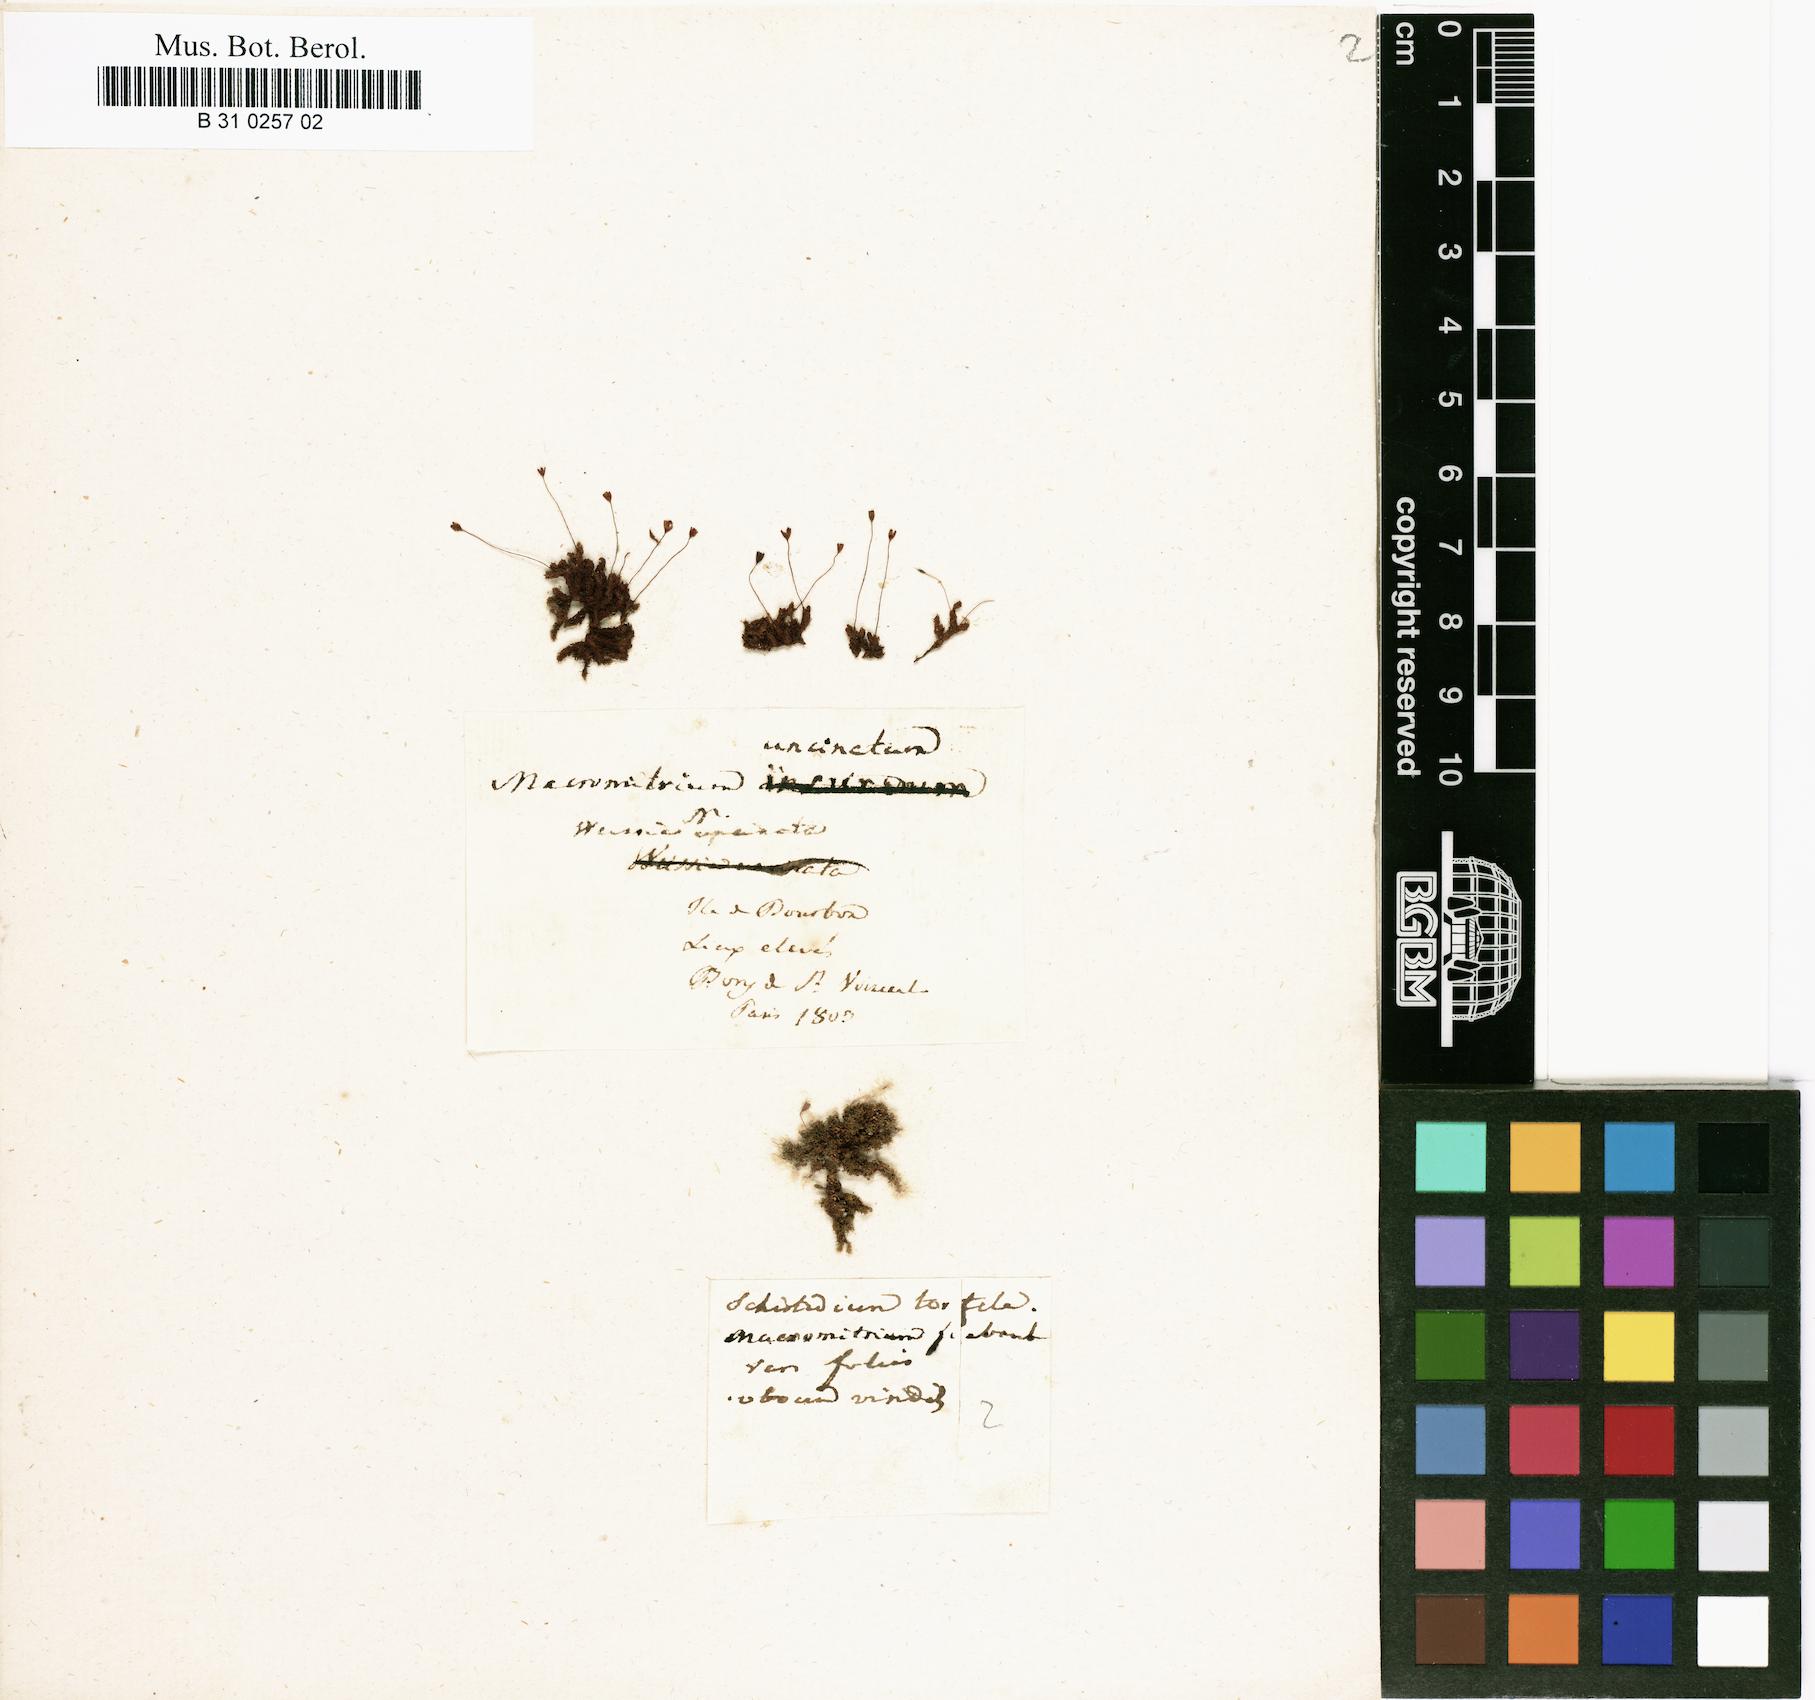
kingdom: Plantae
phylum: Bryophyta
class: Bryopsida
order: Orthotrichales
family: Orthotrichaceae
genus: Macromitrium
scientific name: Macromitrium fimbriatum
